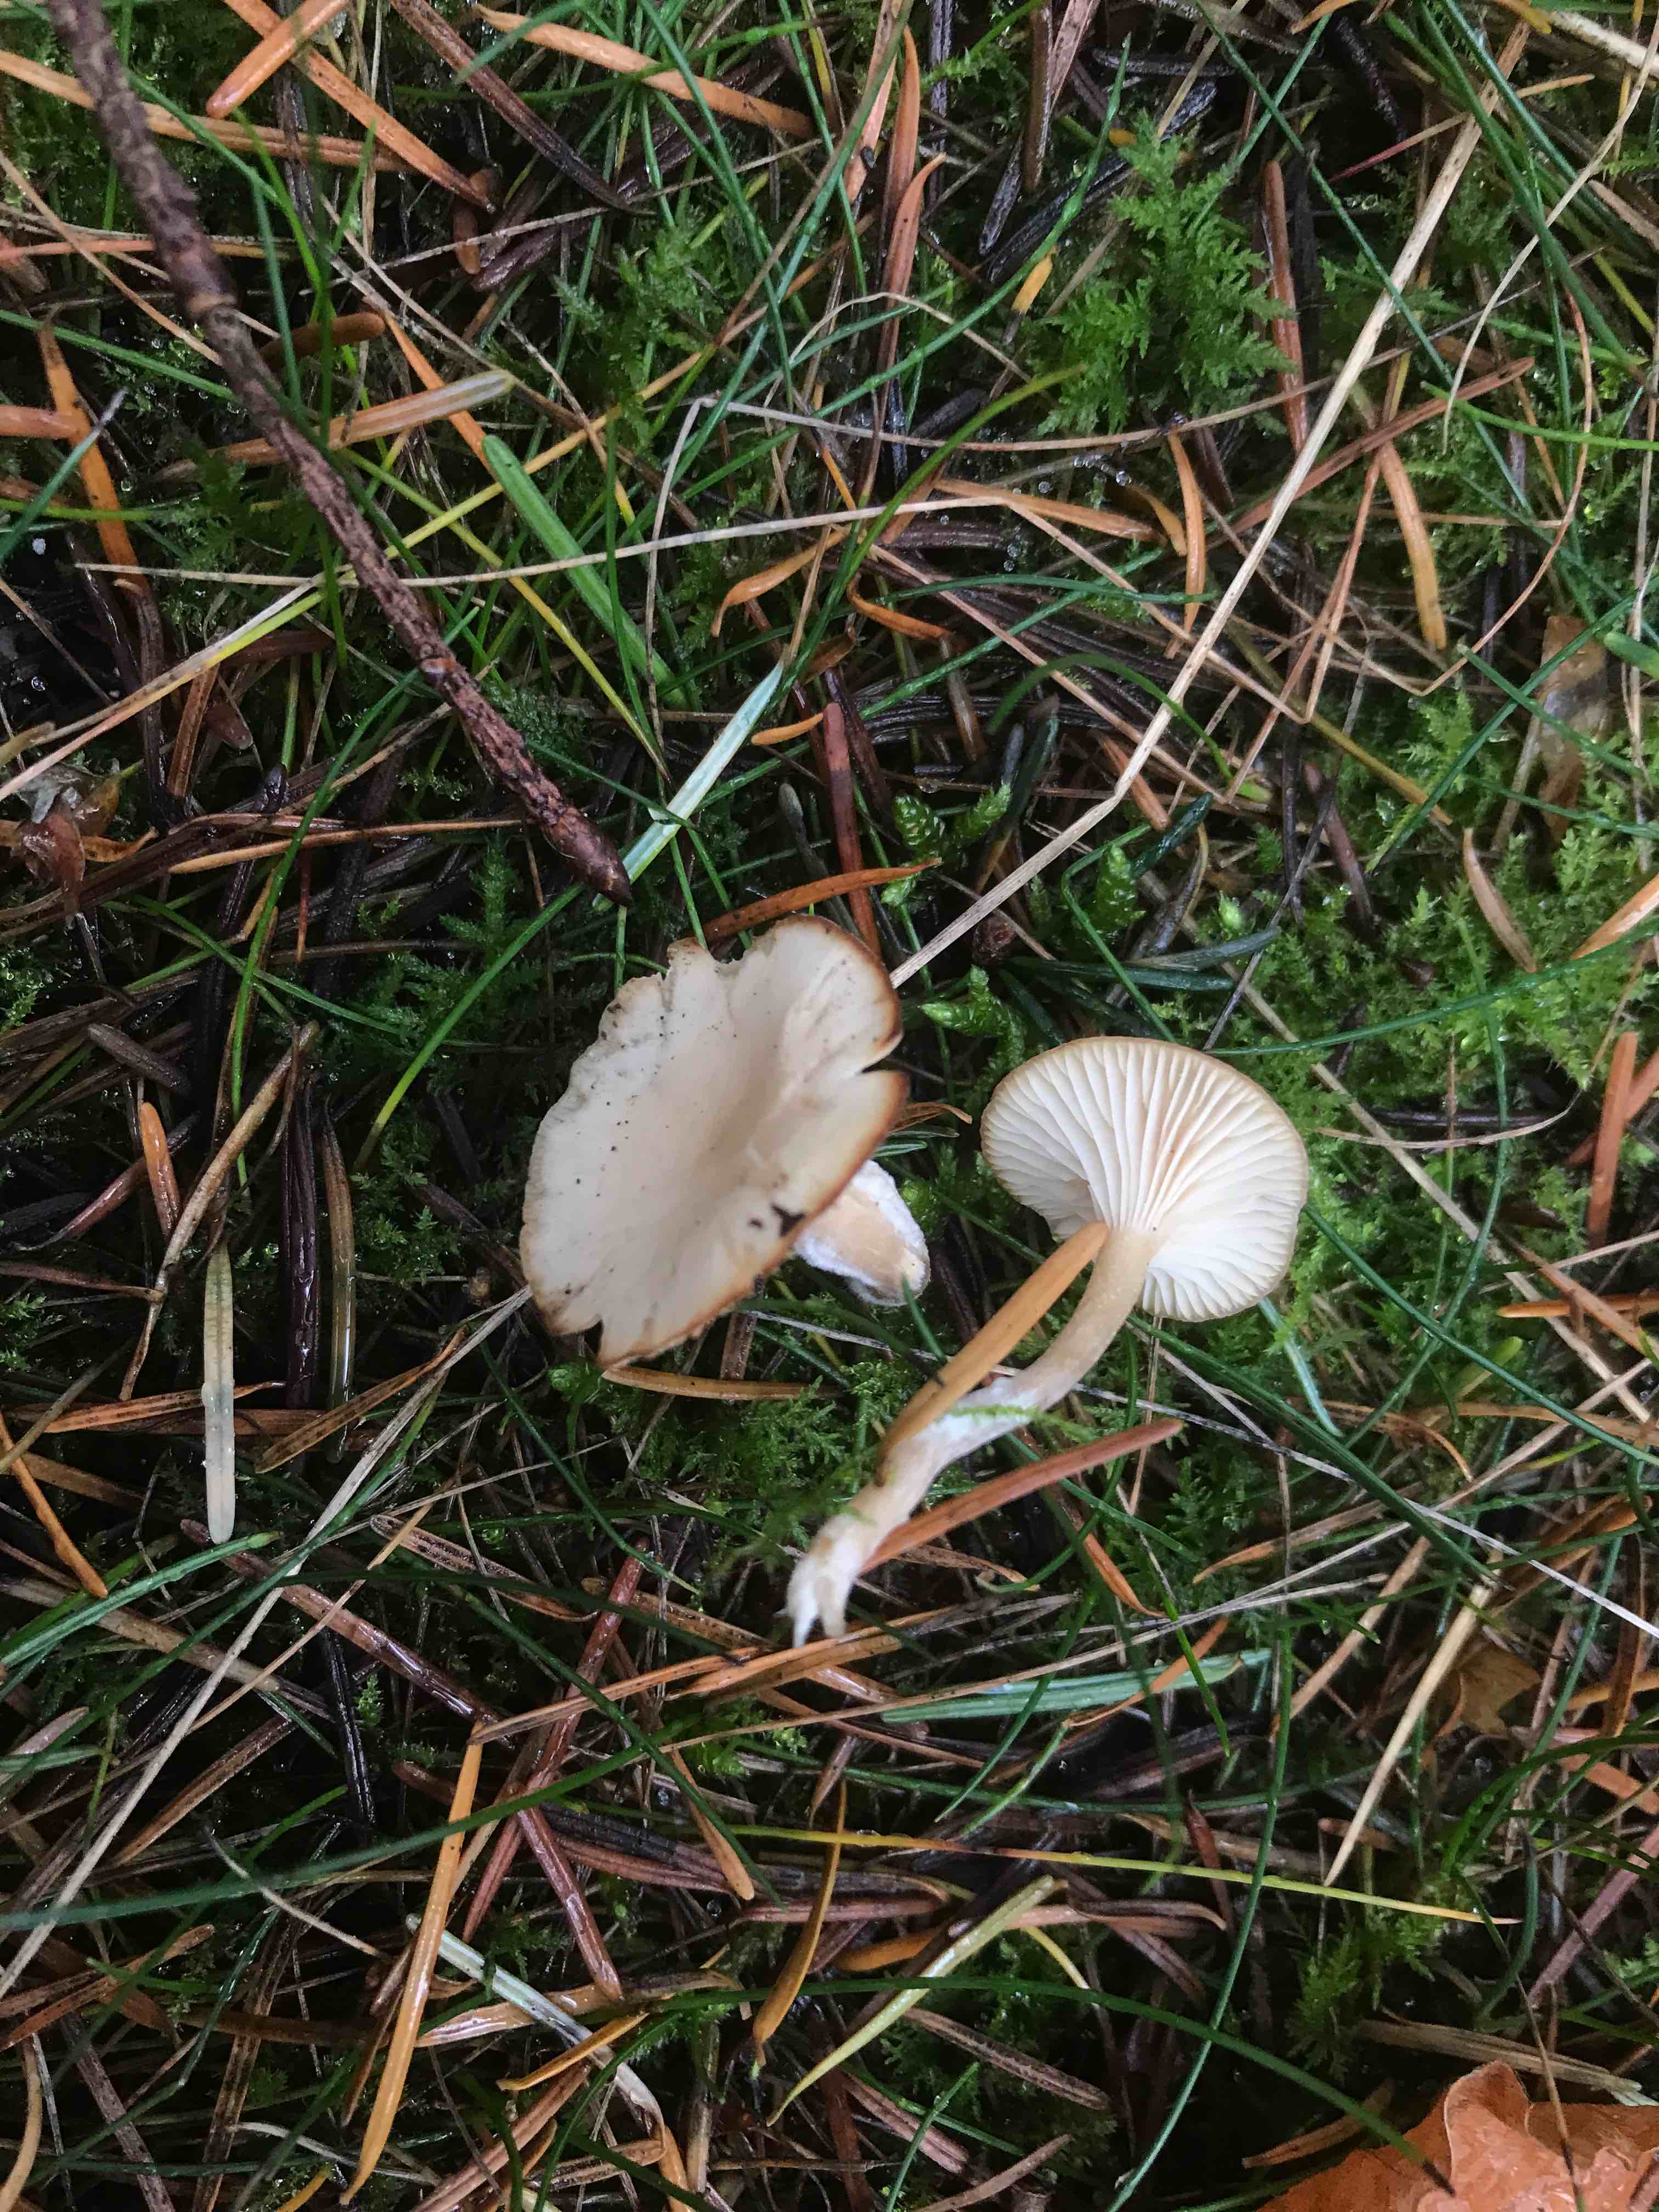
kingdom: Fungi
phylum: Basidiomycota
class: Agaricomycetes
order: Agaricales
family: Tricholomataceae
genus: Clitocybe
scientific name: Clitocybe fragrans
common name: vellugtende tragthat
